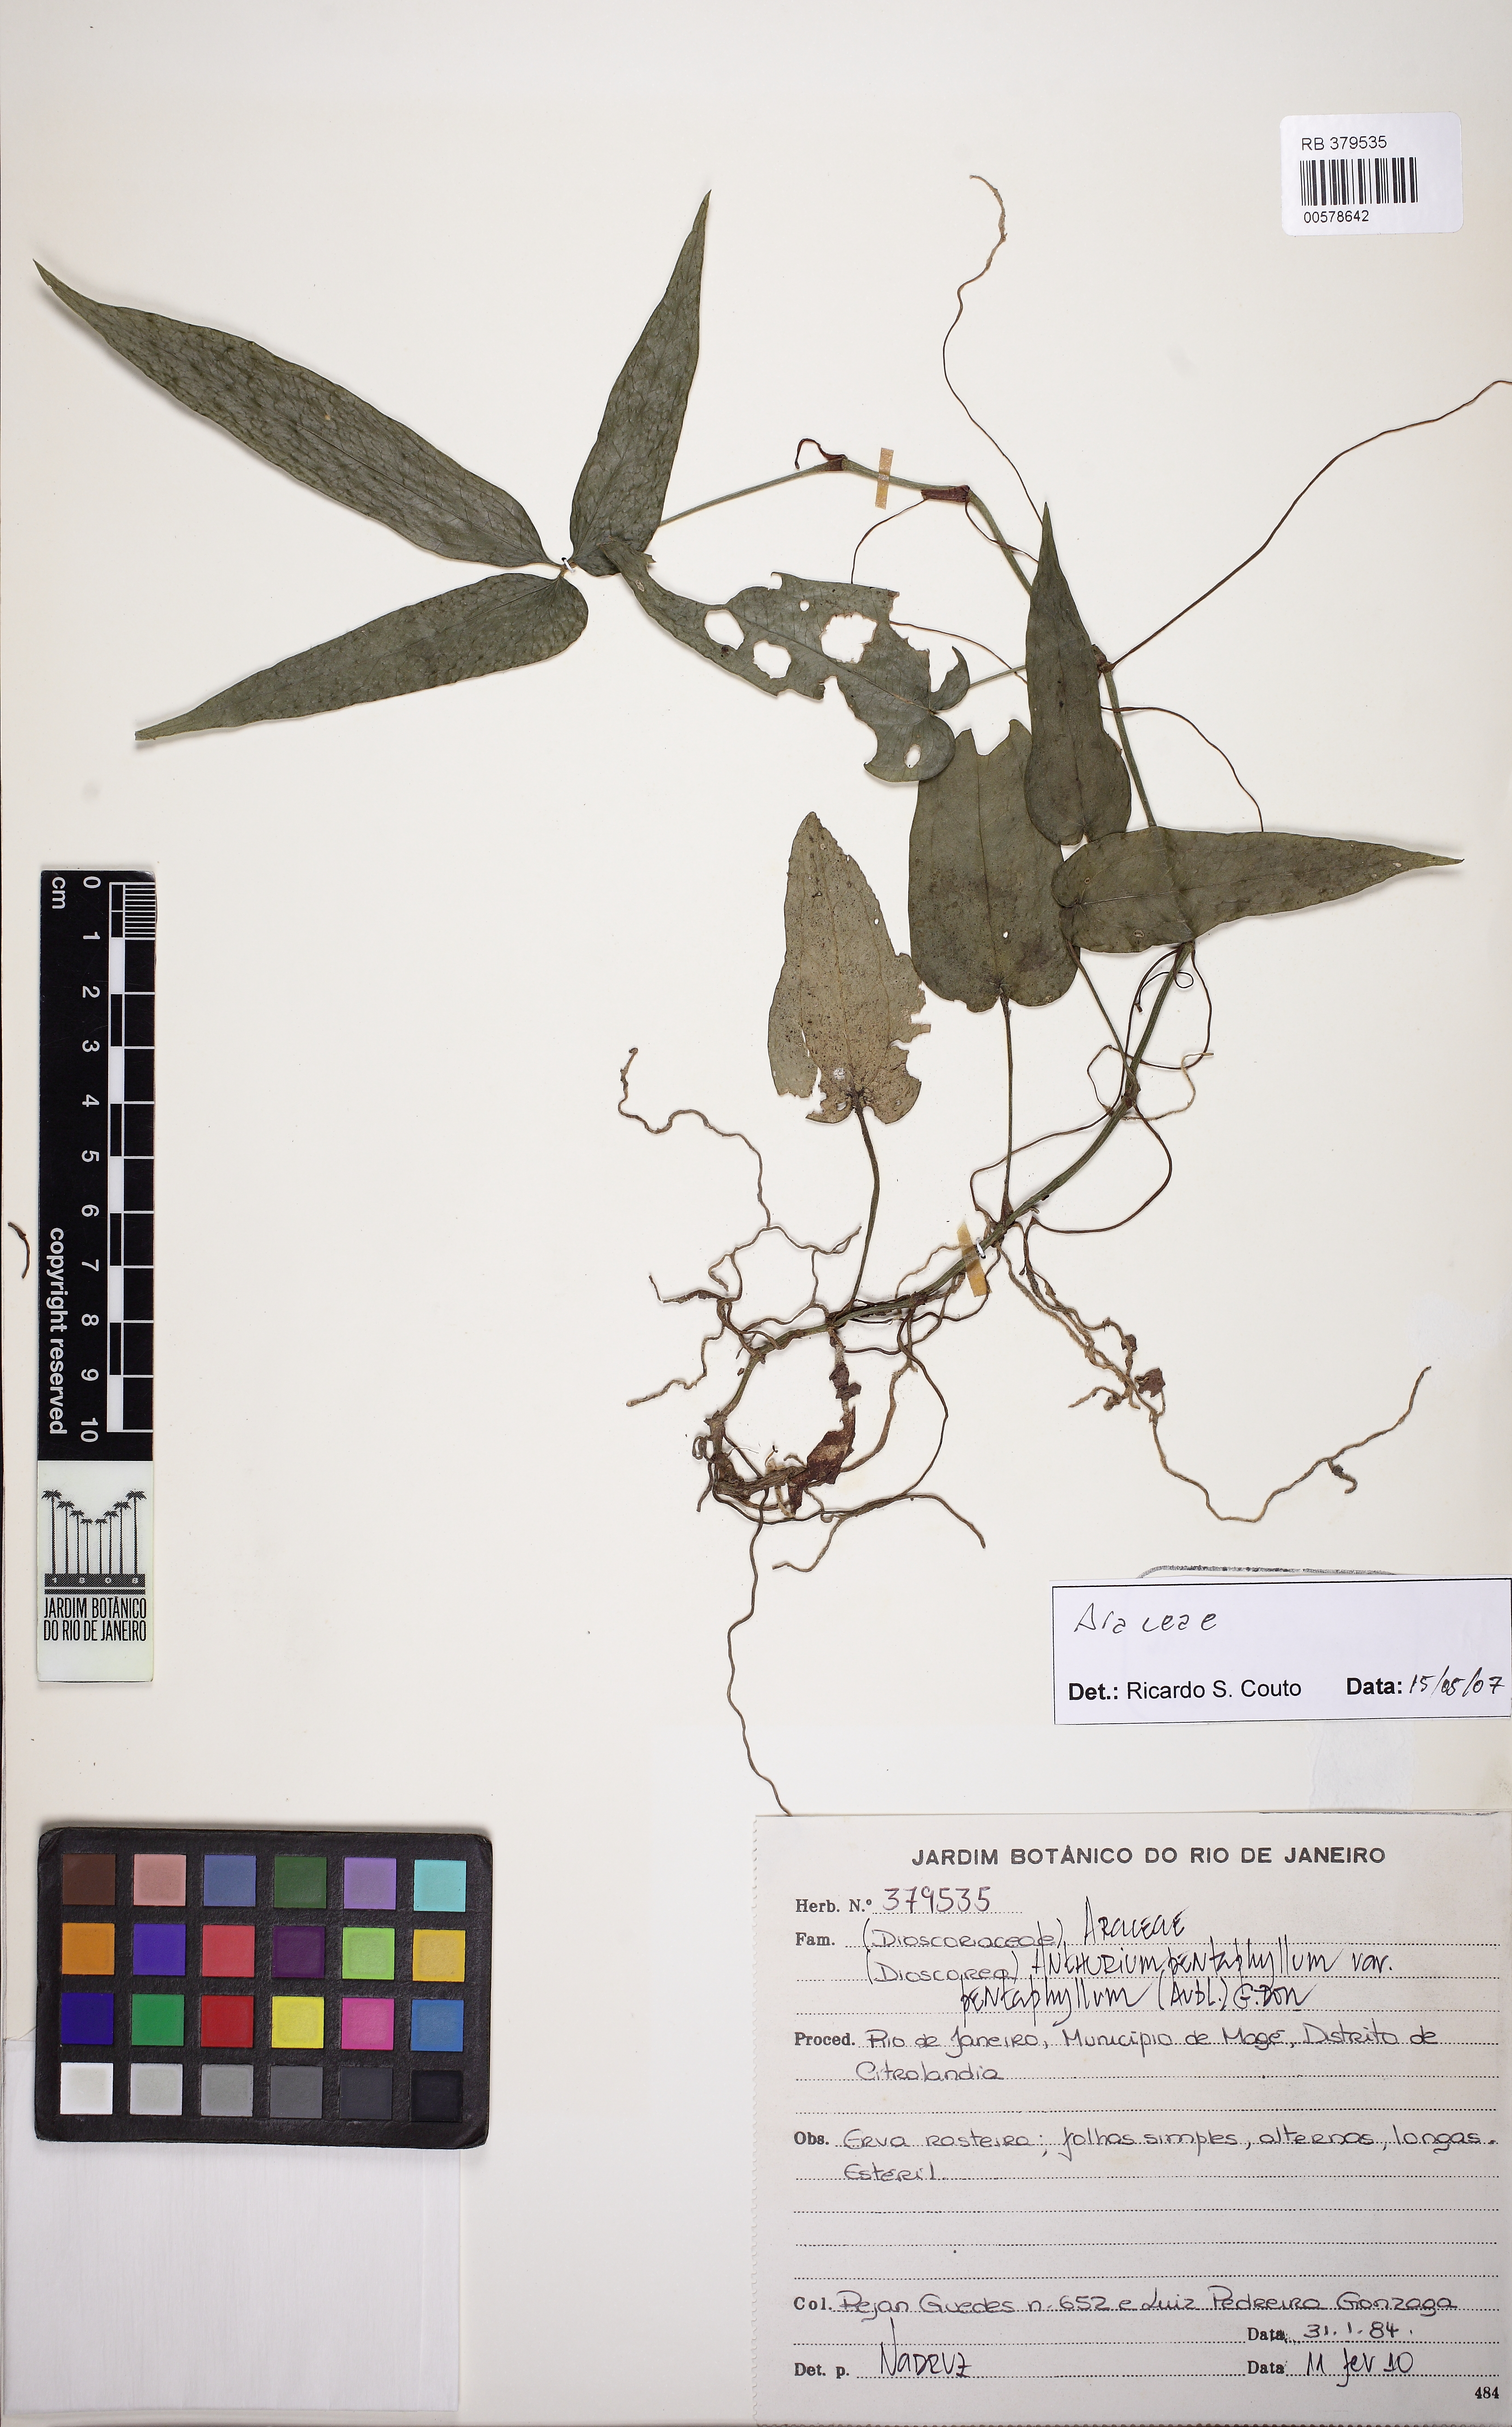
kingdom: Plantae
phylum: Tracheophyta
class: Liliopsida
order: Alismatales
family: Araceae
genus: Anthurium
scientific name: Anthurium pentaphyllum
